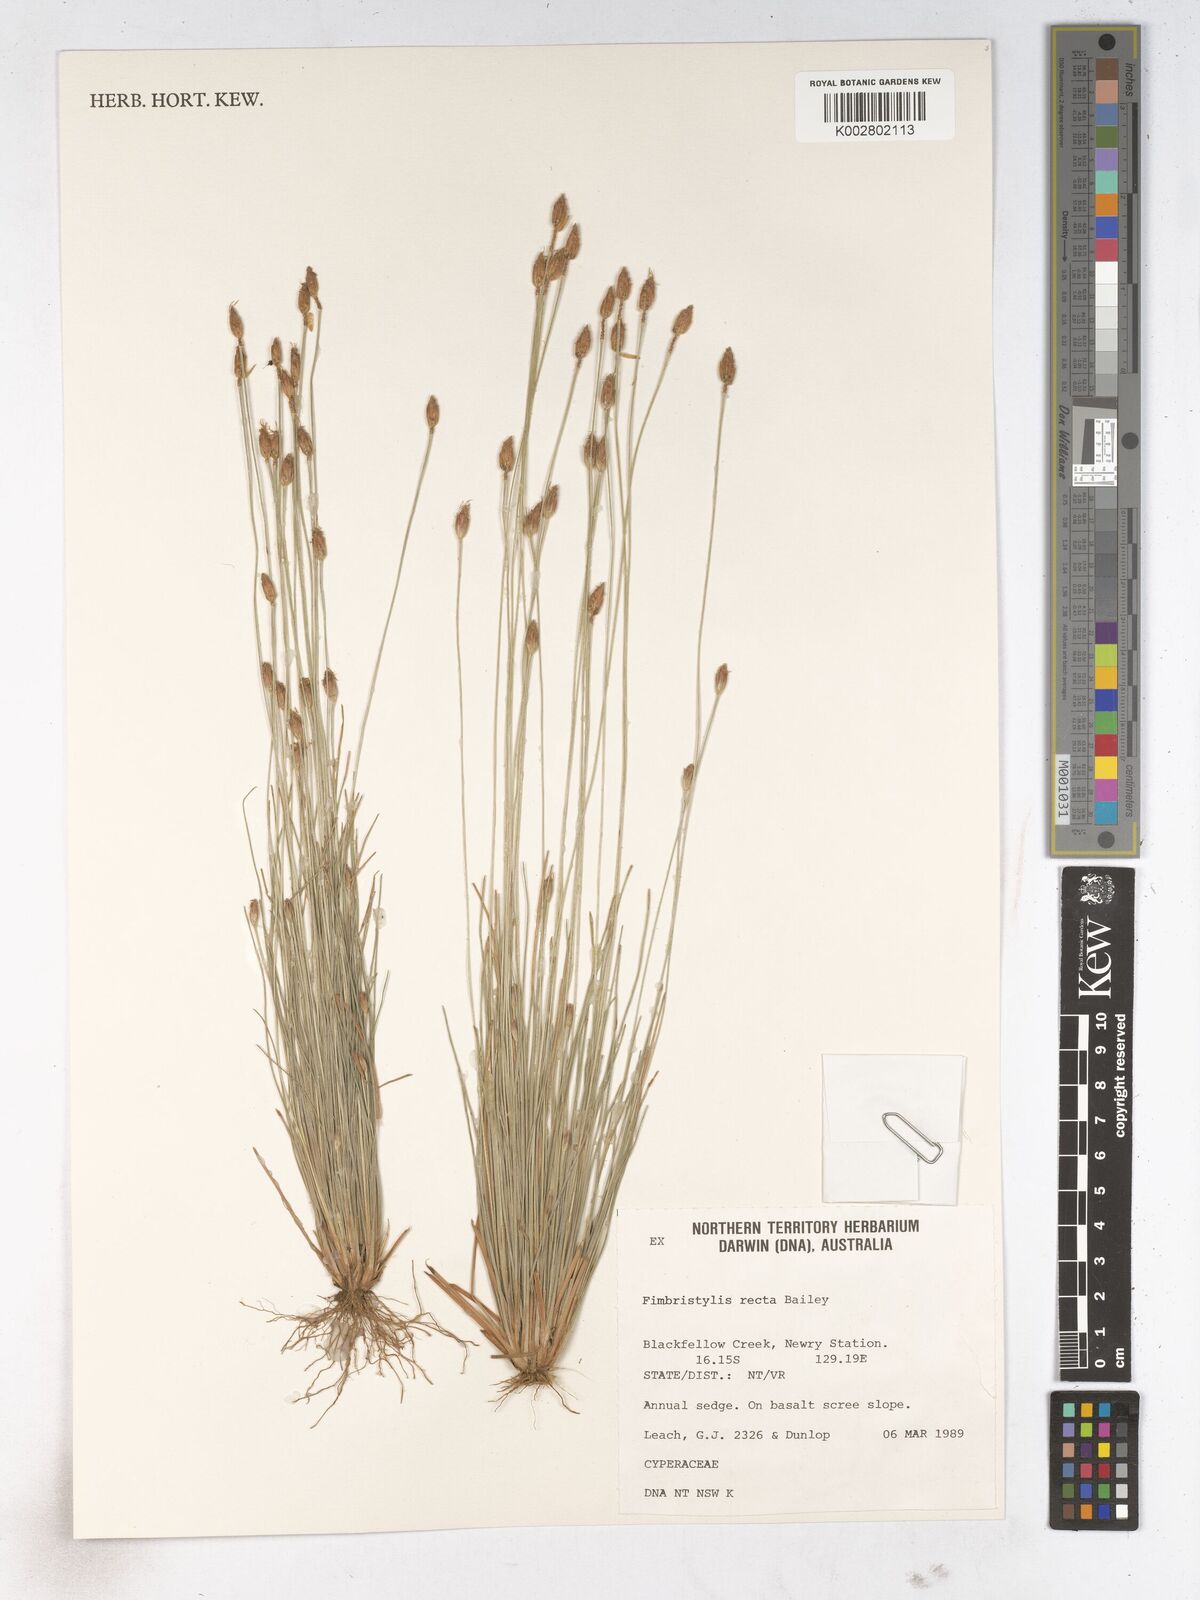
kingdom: Plantae
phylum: Tracheophyta
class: Liliopsida
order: Poales
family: Cyperaceae
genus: Fimbristylis
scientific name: Fimbristylis recta
